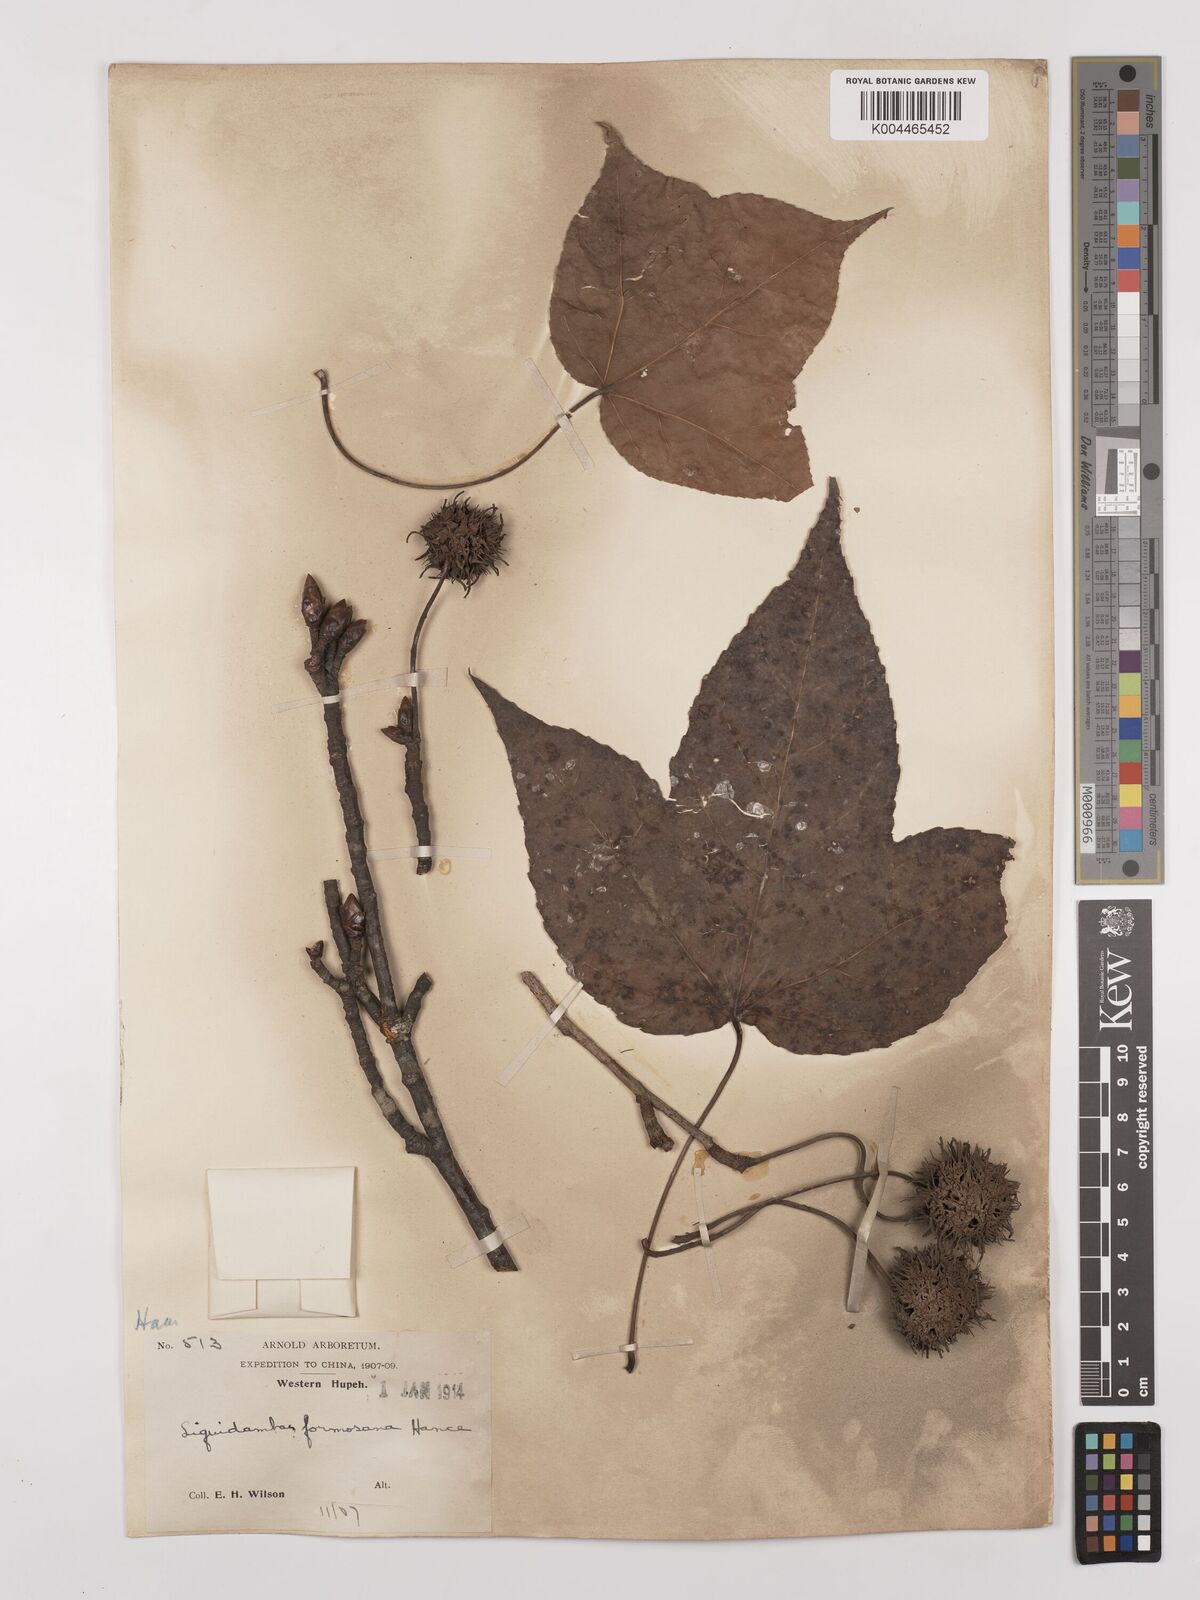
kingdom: Plantae
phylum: Tracheophyta
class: Magnoliopsida
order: Saxifragales
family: Altingiaceae
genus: Liquidambar
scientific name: Liquidambar formosana
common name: Chinese sweet gum
